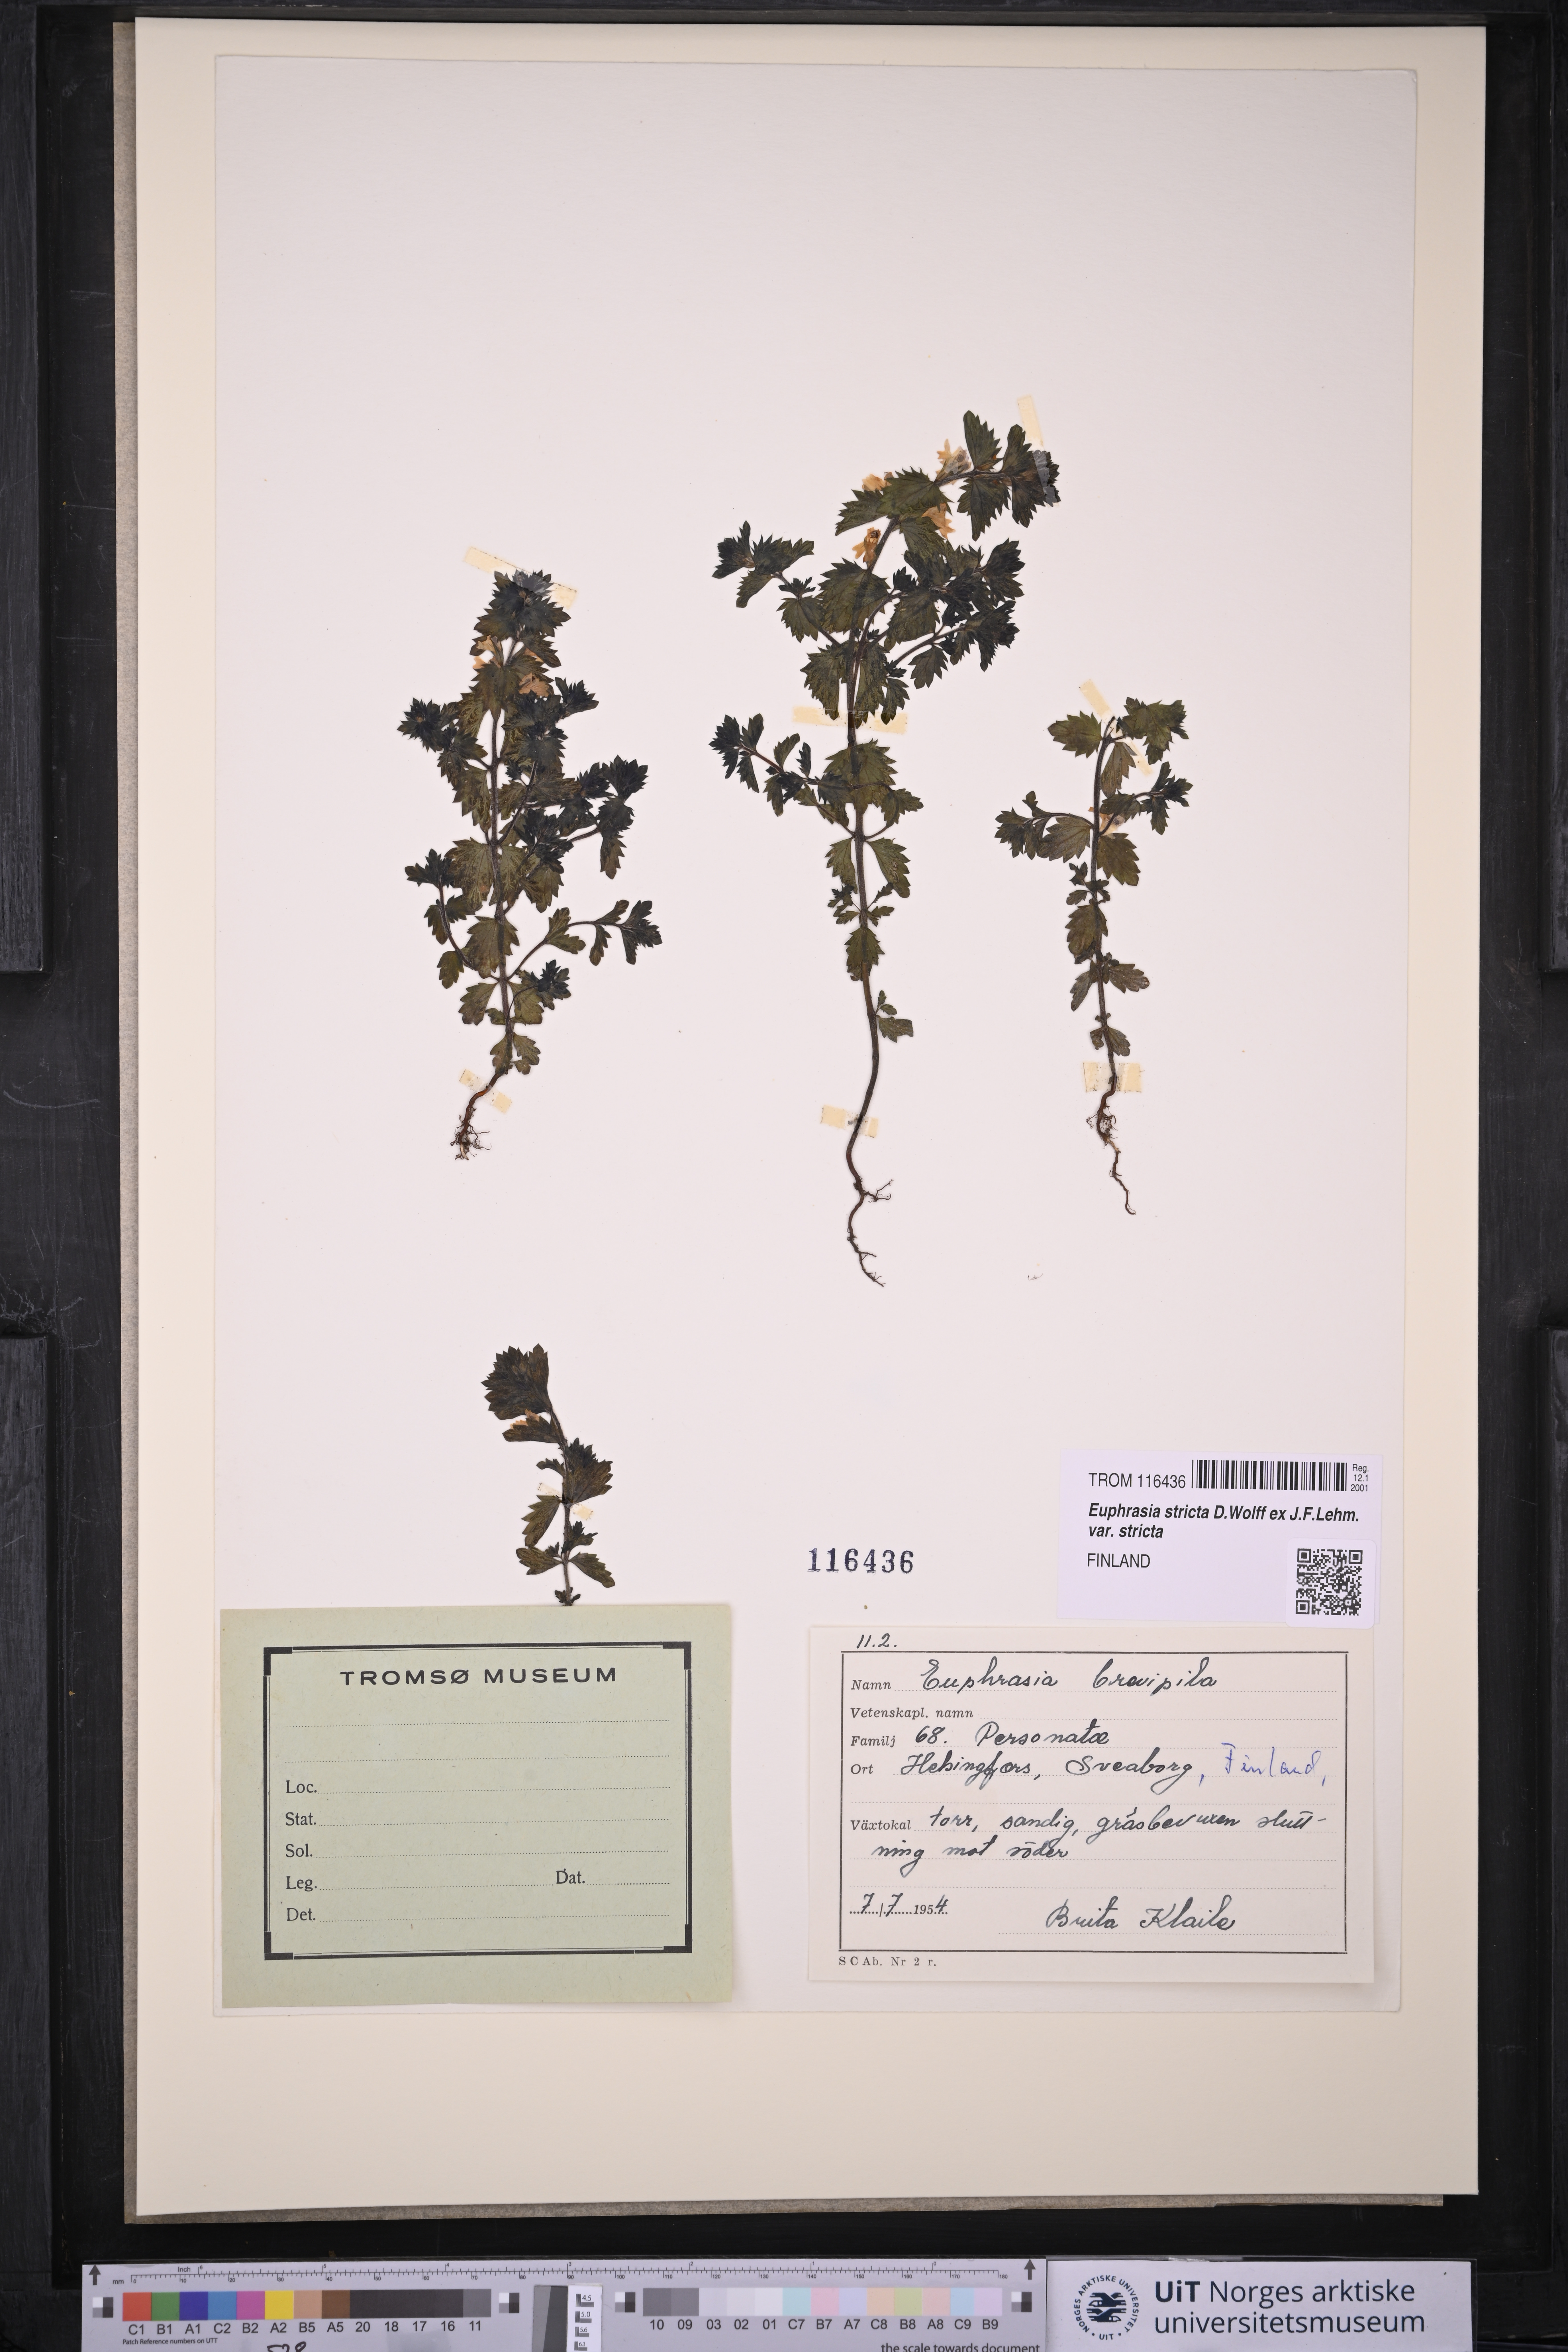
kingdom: Plantae
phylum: Tracheophyta
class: Magnoliopsida
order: Lamiales
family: Orobanchaceae
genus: Euphrasia
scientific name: Euphrasia vernalis
